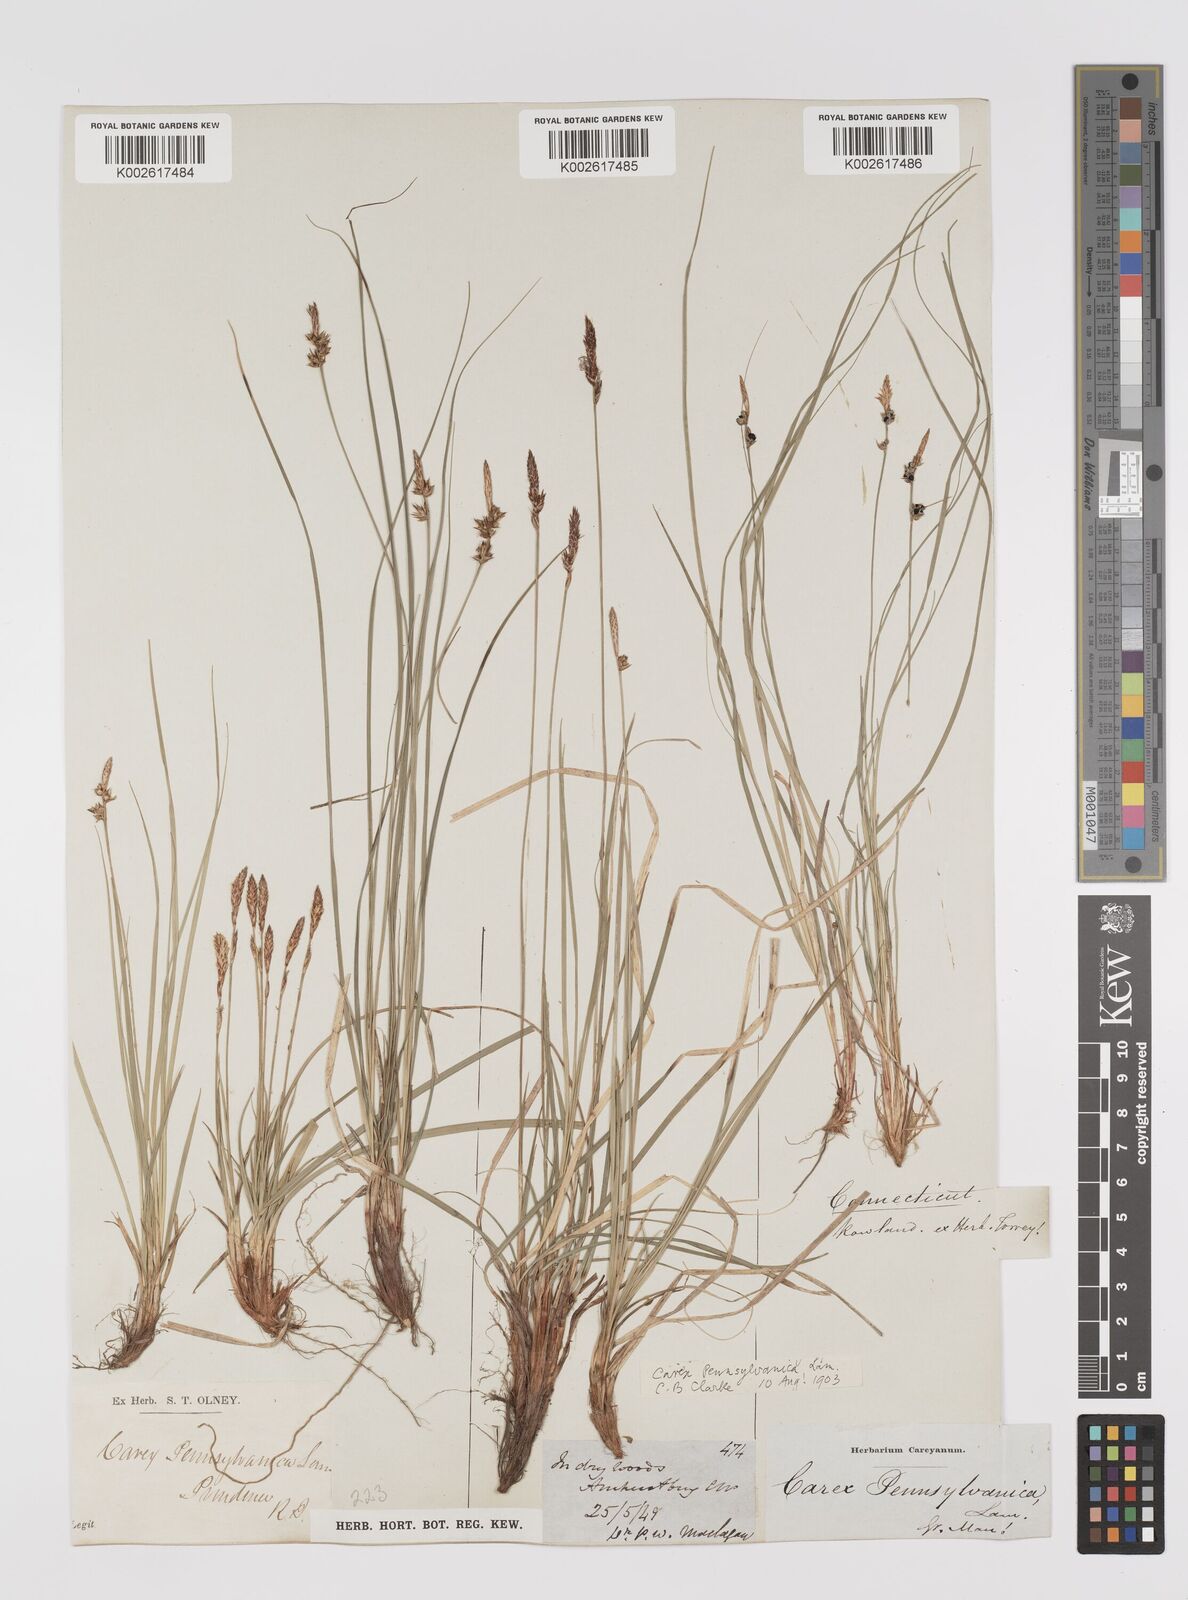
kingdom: Plantae
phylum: Tracheophyta
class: Liliopsida
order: Poales
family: Cyperaceae
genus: Carex
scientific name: Carex pensylvanica
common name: Common oak sedge
